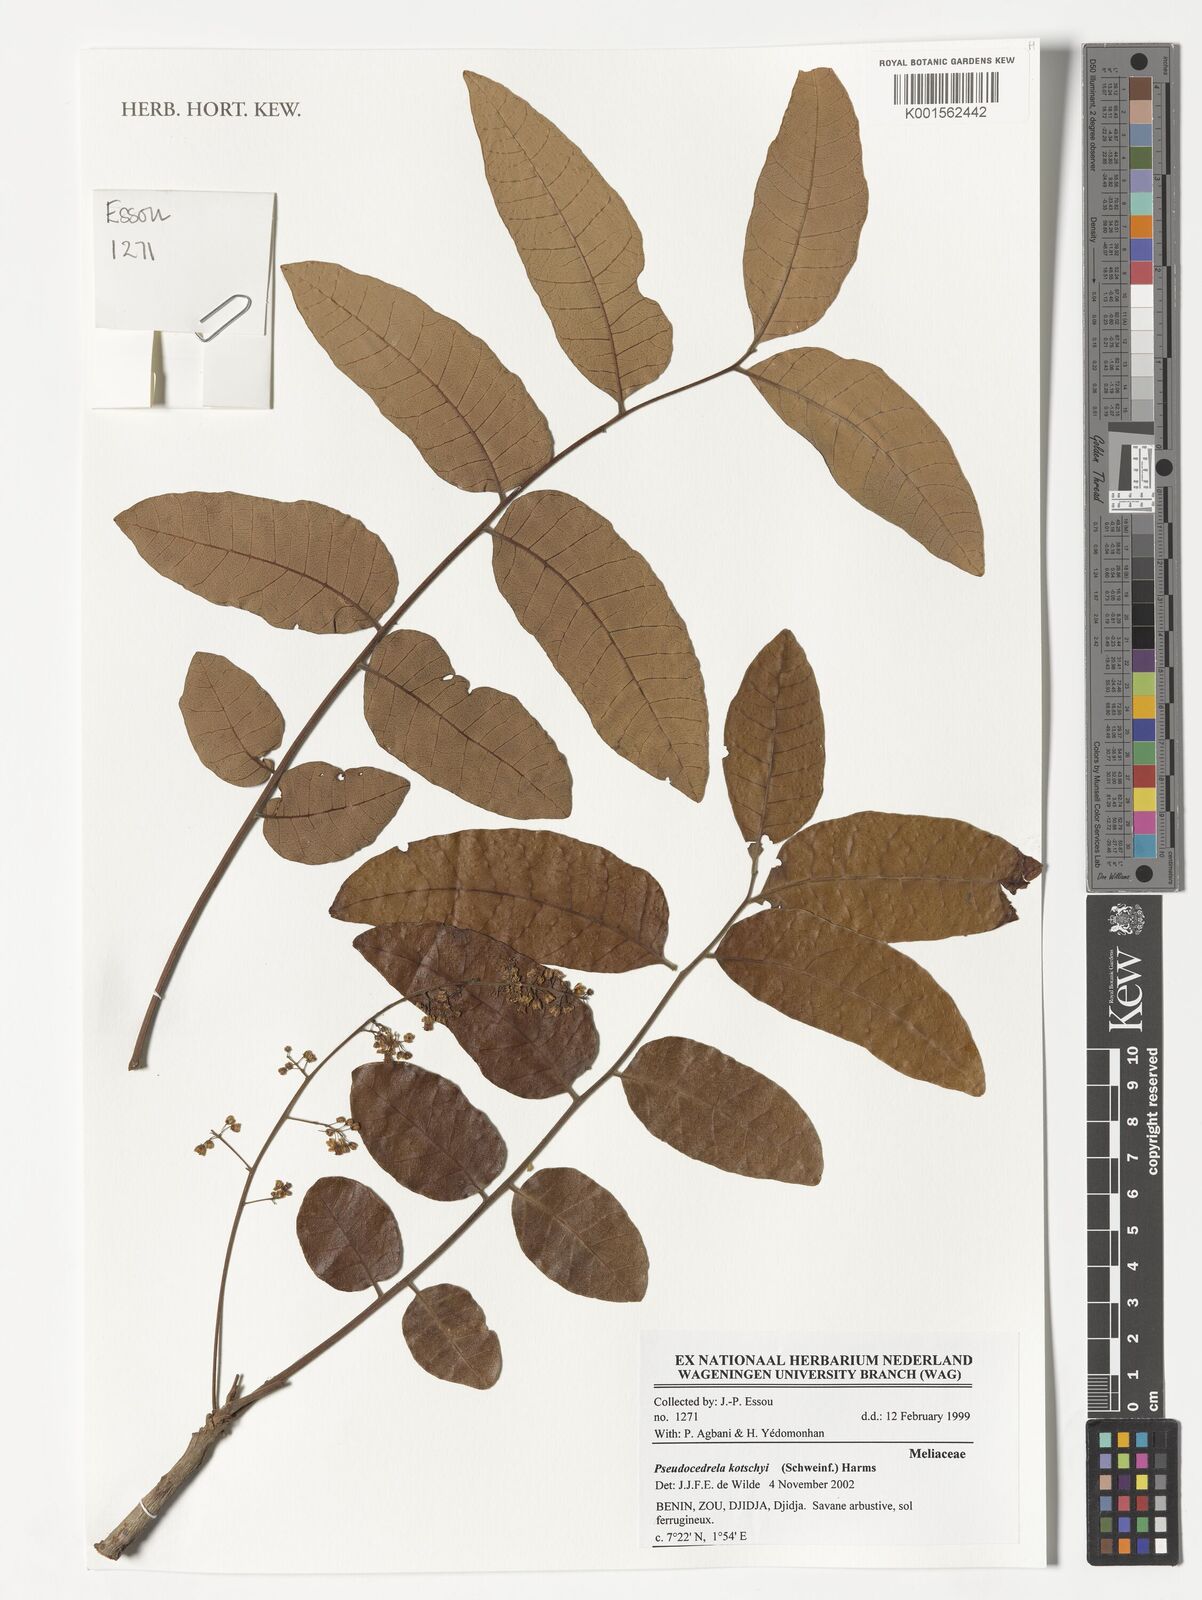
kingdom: Plantae
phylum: Tracheophyta
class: Magnoliopsida
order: Sapindales
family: Meliaceae
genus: Pseudocedrela
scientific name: Pseudocedrela kotschyi
